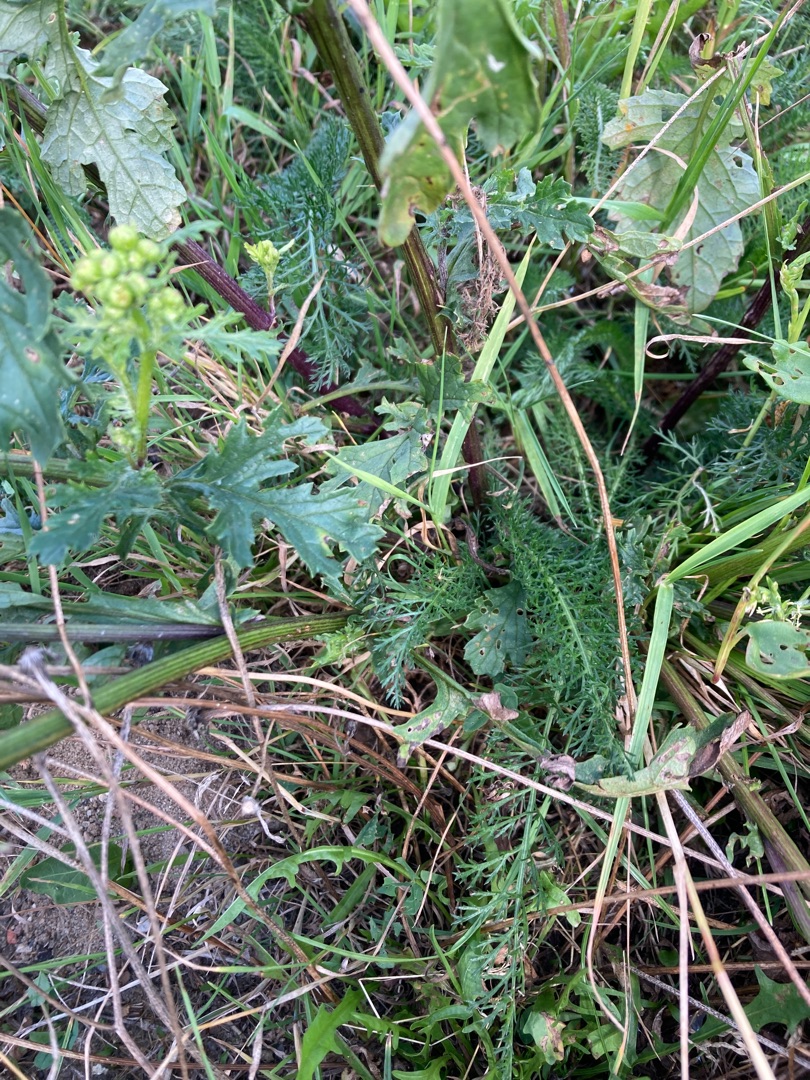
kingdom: Plantae
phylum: Tracheophyta
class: Magnoliopsida
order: Asterales
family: Asteraceae
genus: Jacobaea
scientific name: Jacobaea vulgaris
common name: Eng-brandbæger
